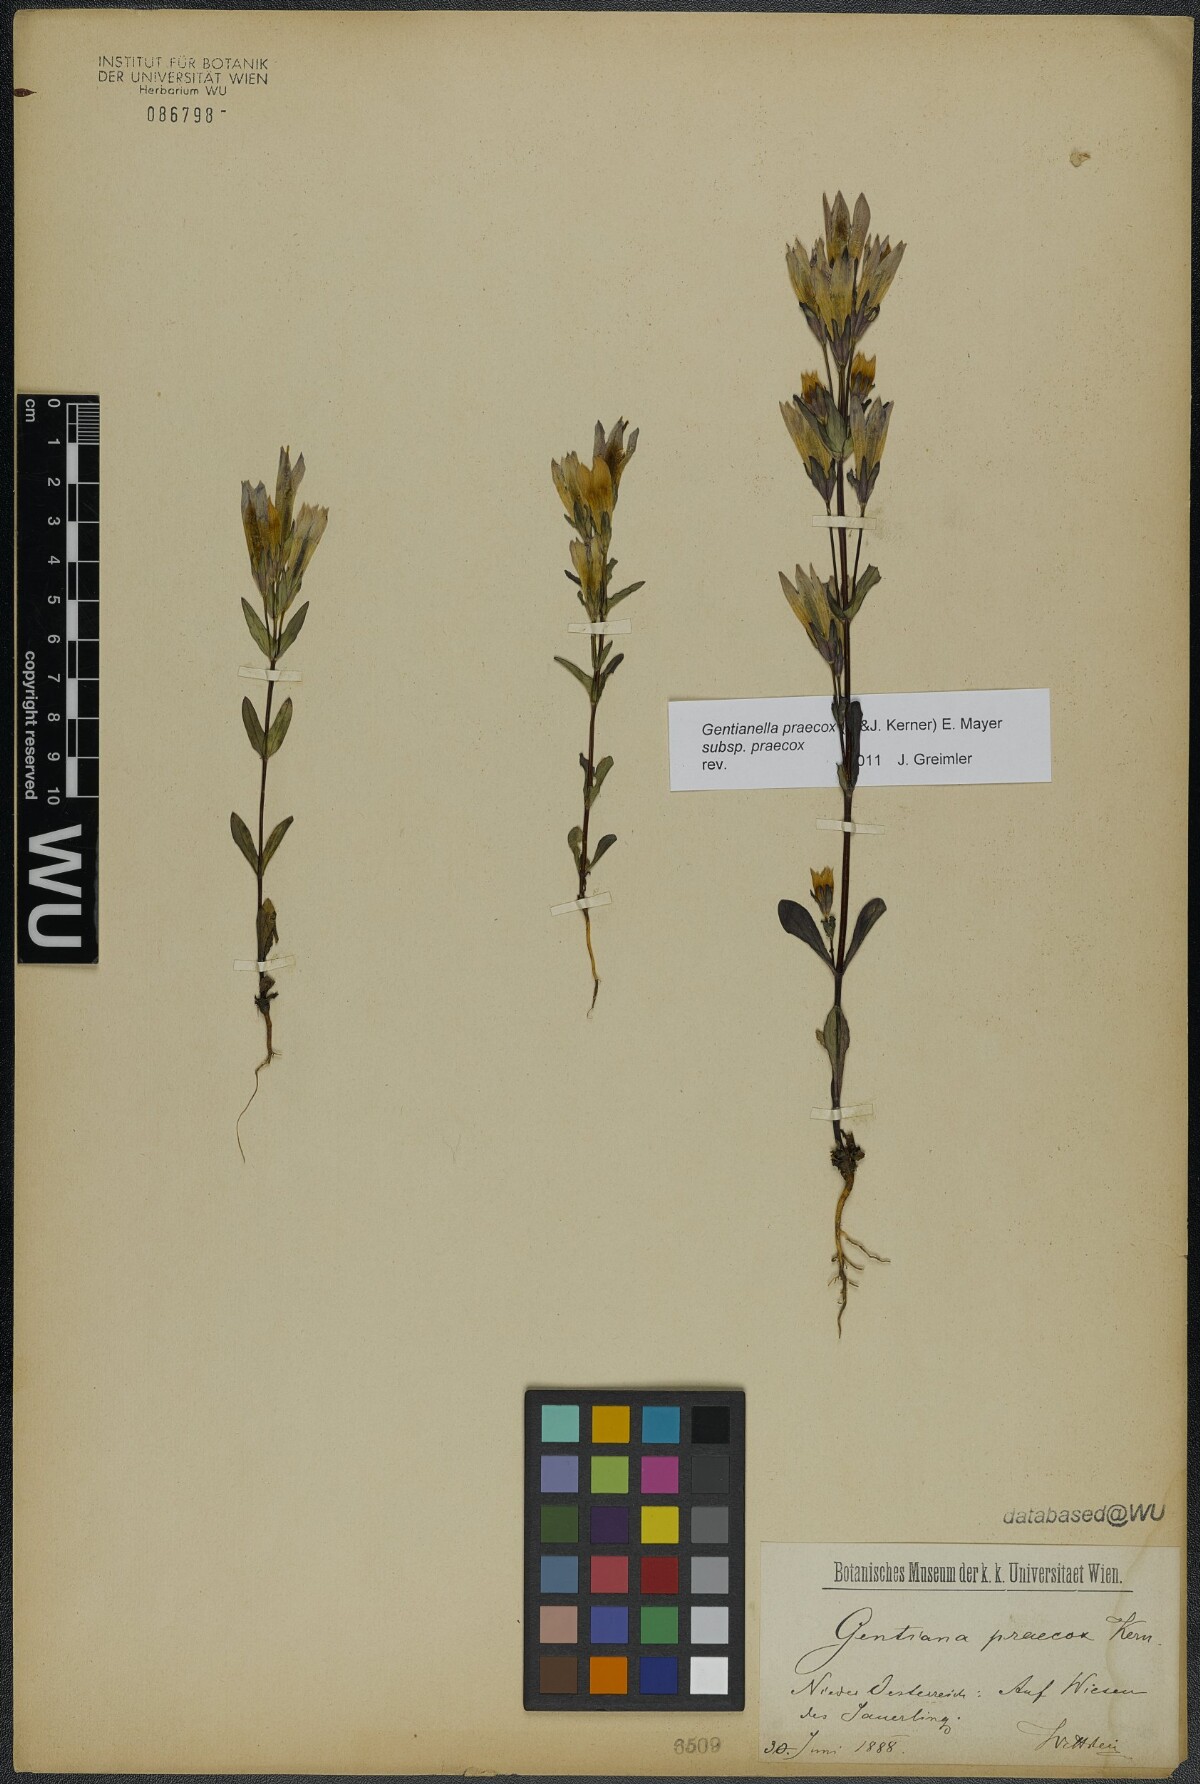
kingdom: Plantae
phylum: Tracheophyta
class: Magnoliopsida
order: Gentianales
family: Gentianaceae
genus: Gentianella
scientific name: Gentianella praecox
